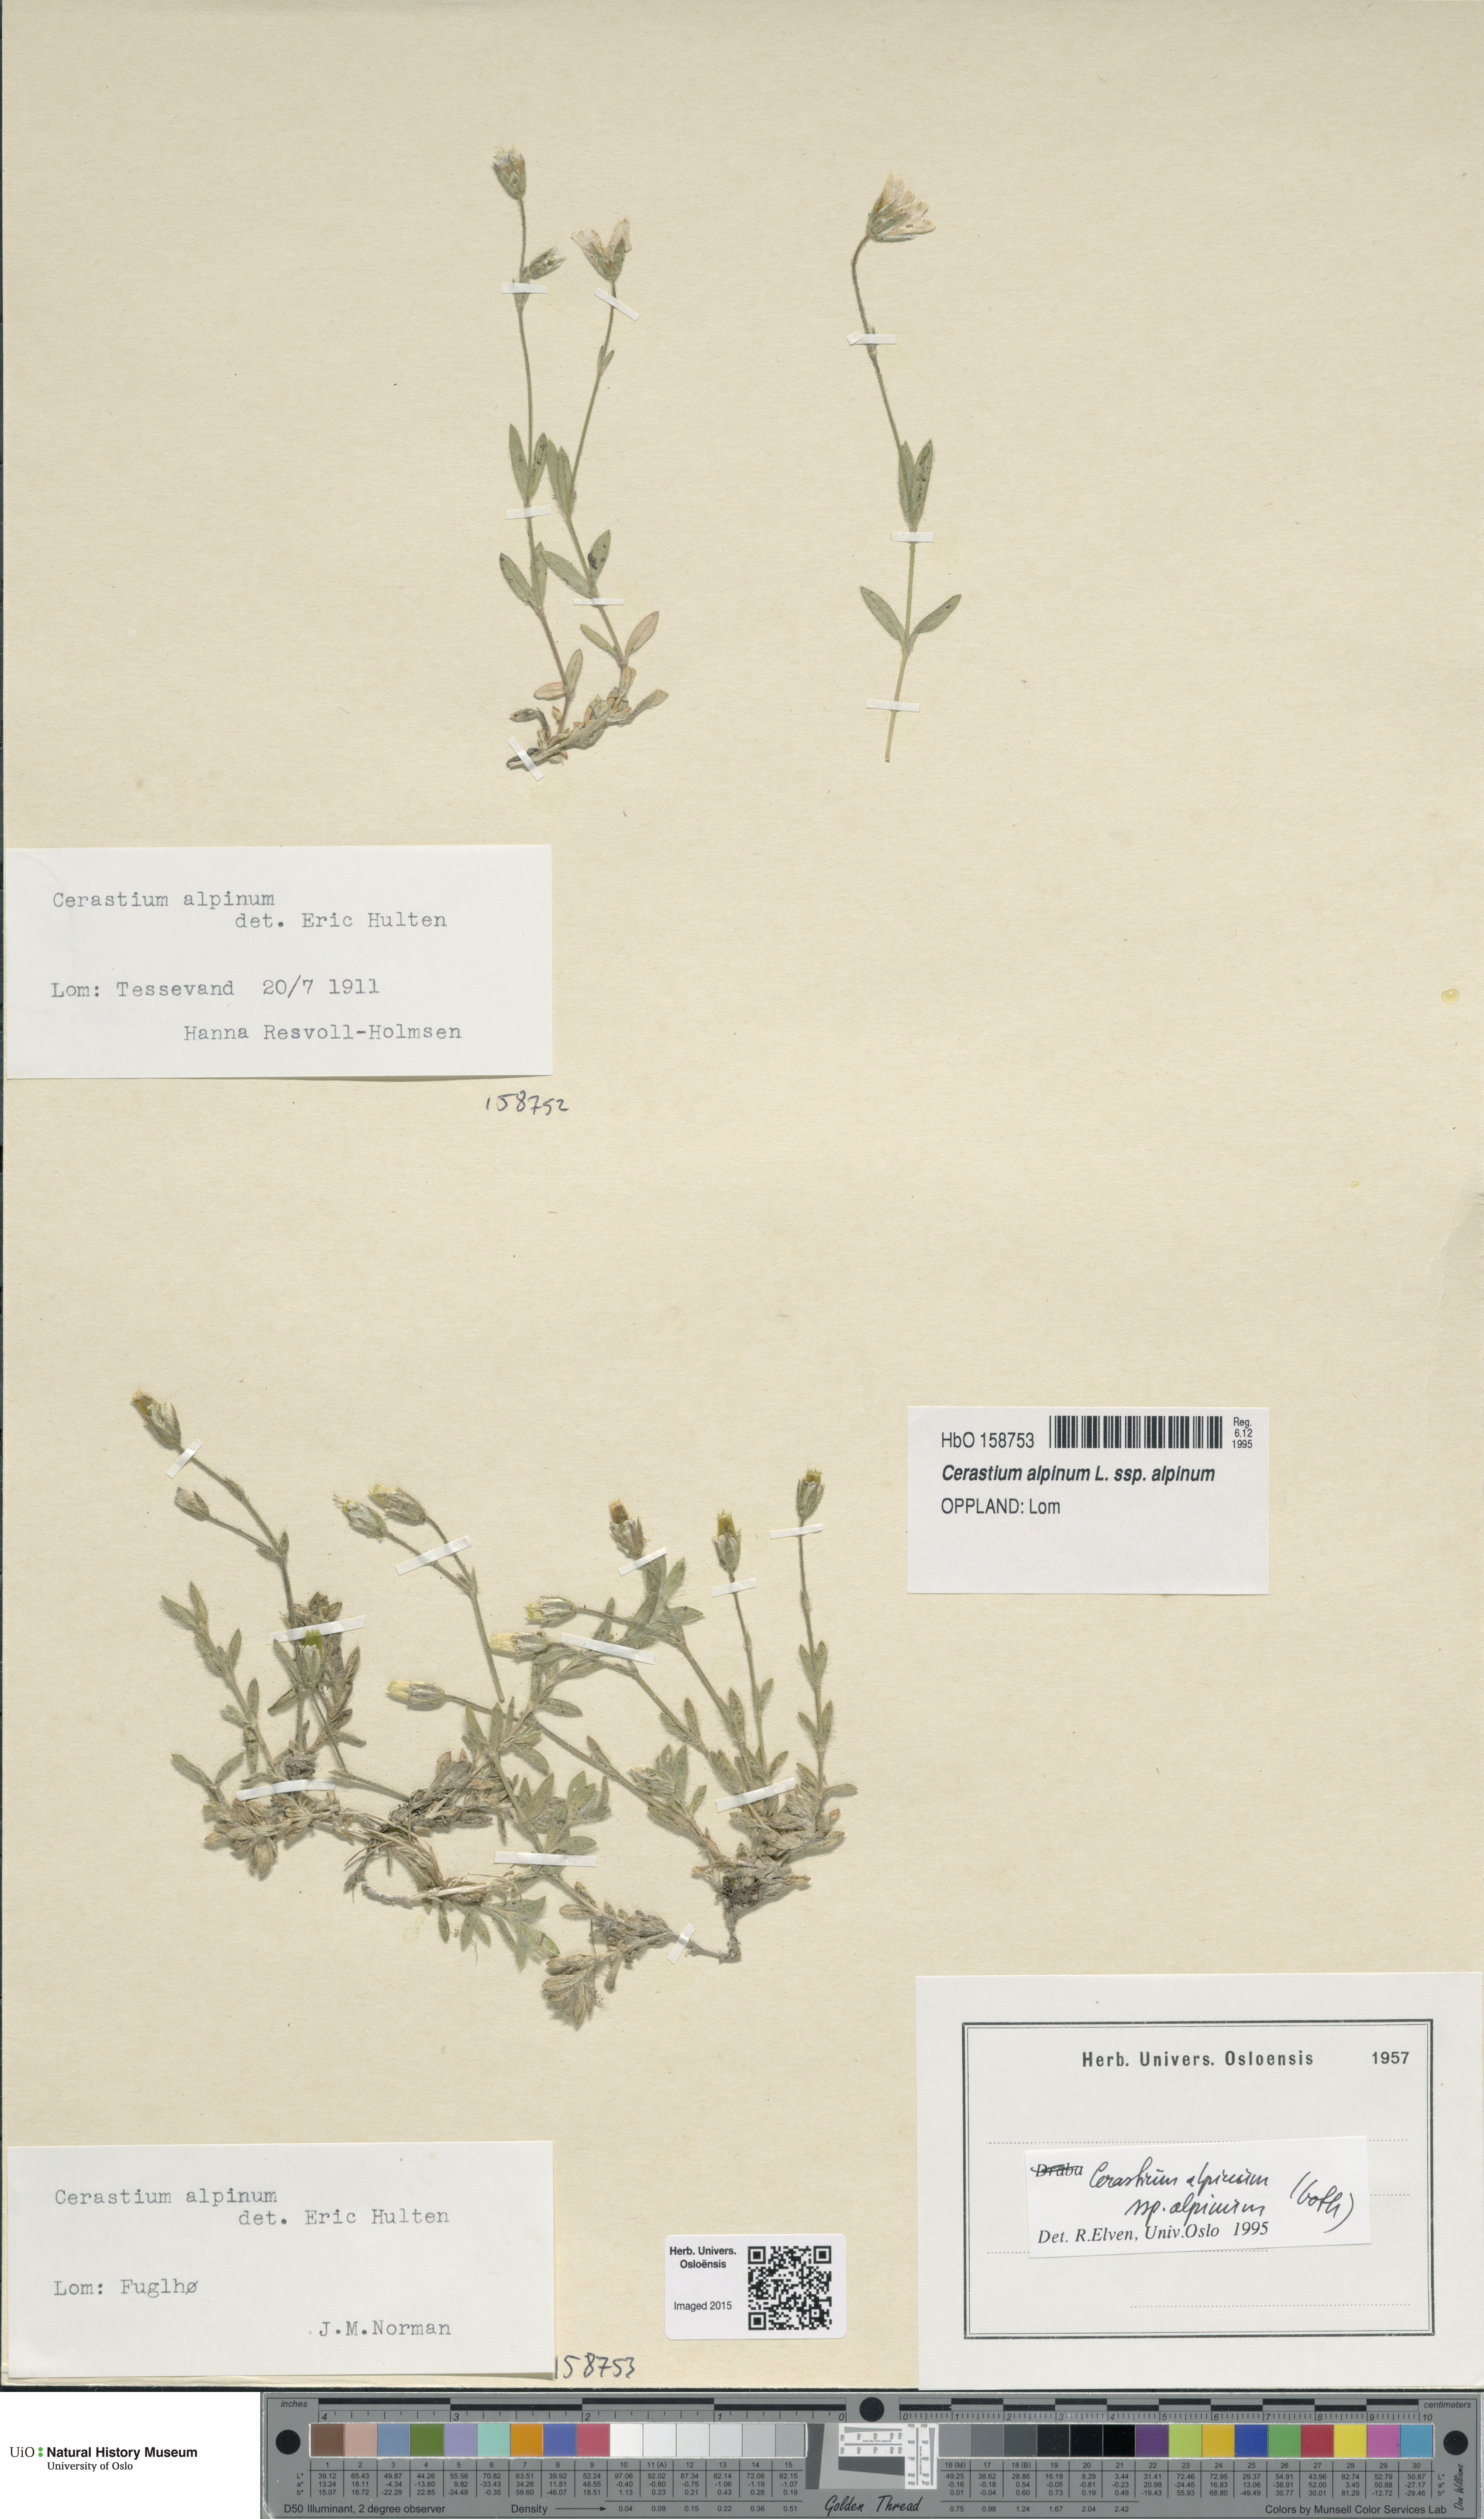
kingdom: Plantae
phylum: Tracheophyta
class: Magnoliopsida
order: Caryophyllales
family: Caryophyllaceae
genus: Cerastium
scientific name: Cerastium alpinum
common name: Alpine mouse-ear
